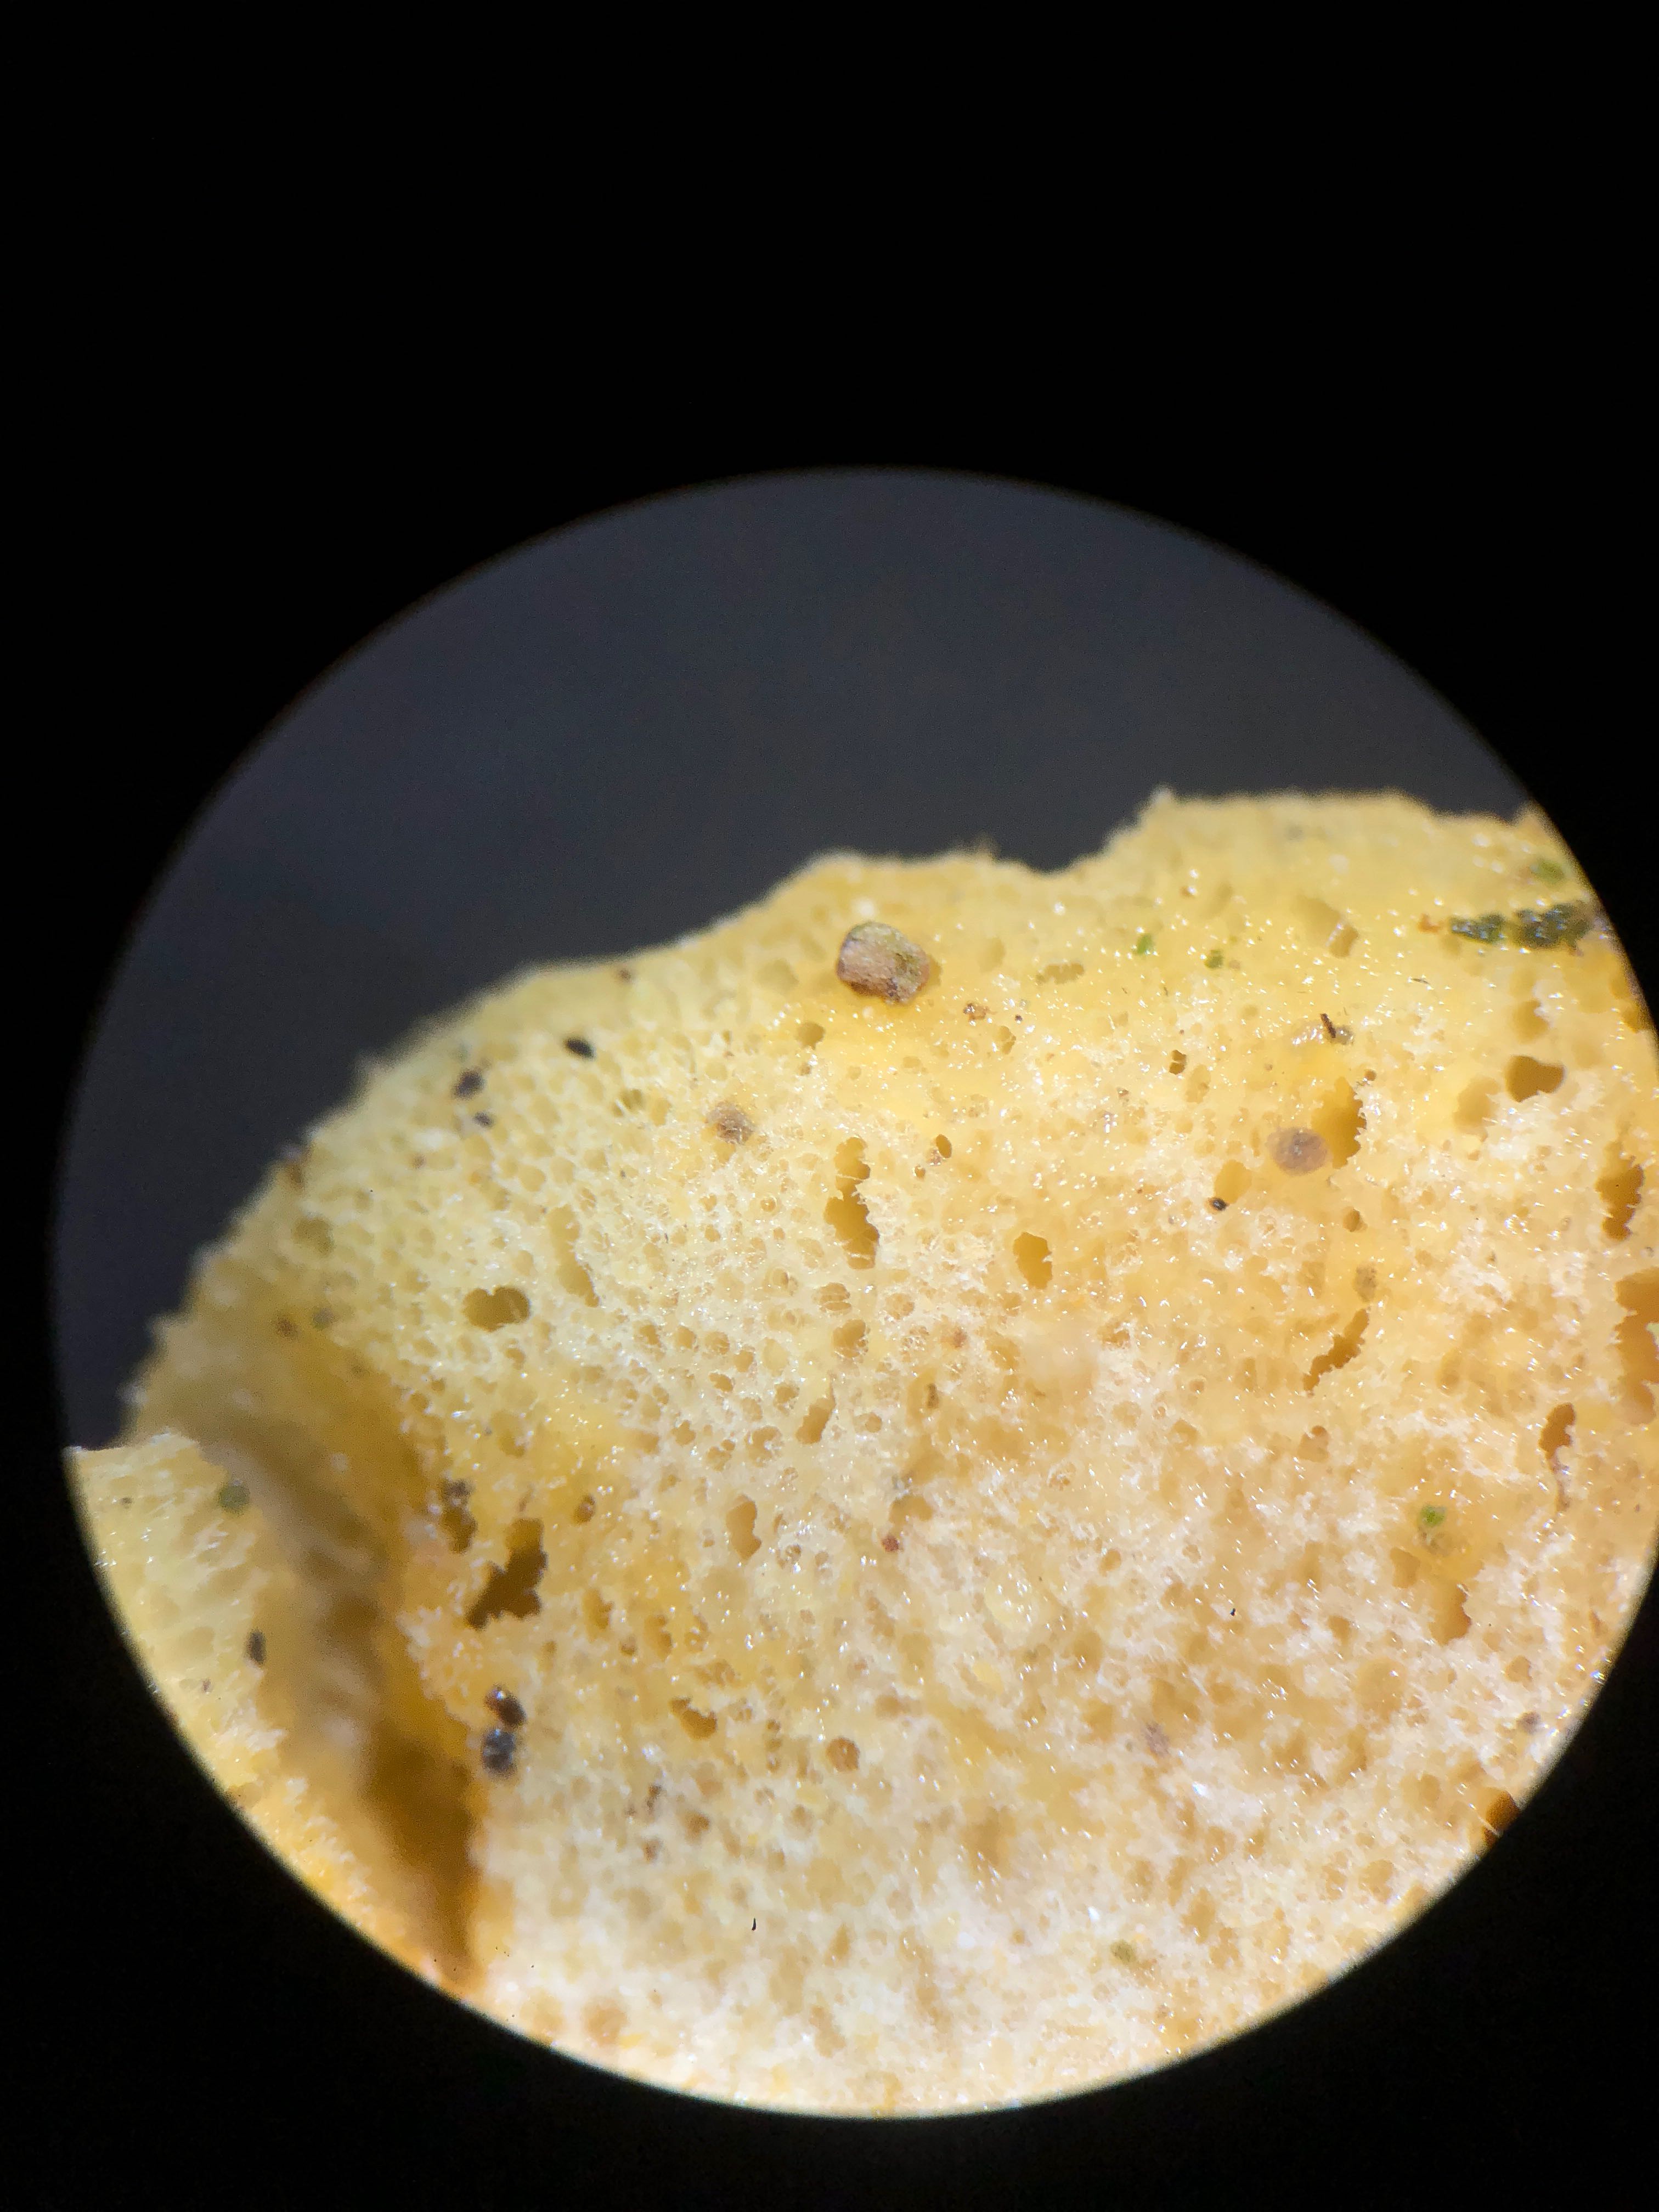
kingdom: Fungi
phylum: Ascomycota
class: Sordariomycetes
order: Hypocreales
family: Hypocreaceae
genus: Protocrea
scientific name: Protocrea pallida
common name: bleg kødkerne
